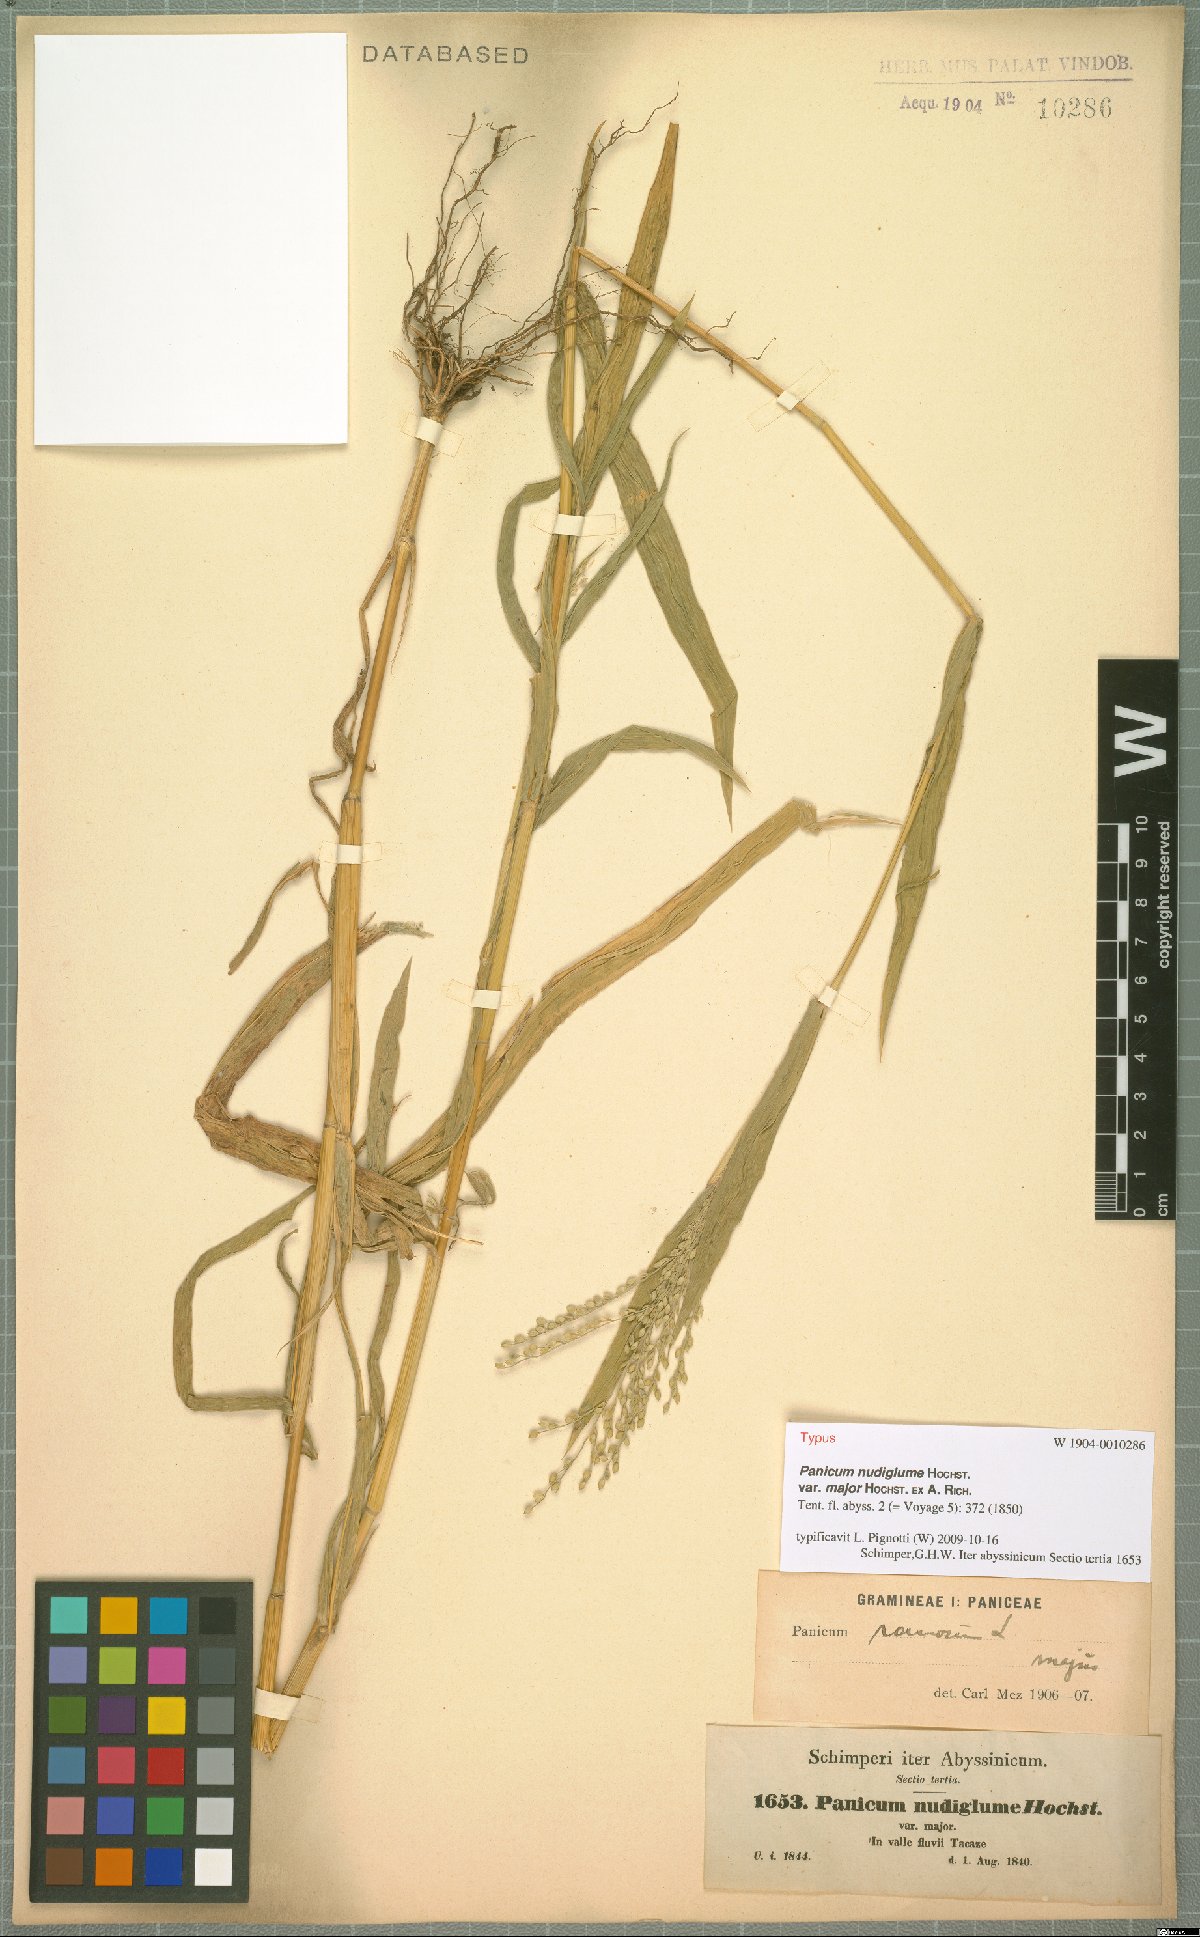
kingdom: Plantae
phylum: Tracheophyta
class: Liliopsida
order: Poales
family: Poaceae
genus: Urochloa
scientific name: Urochloa
